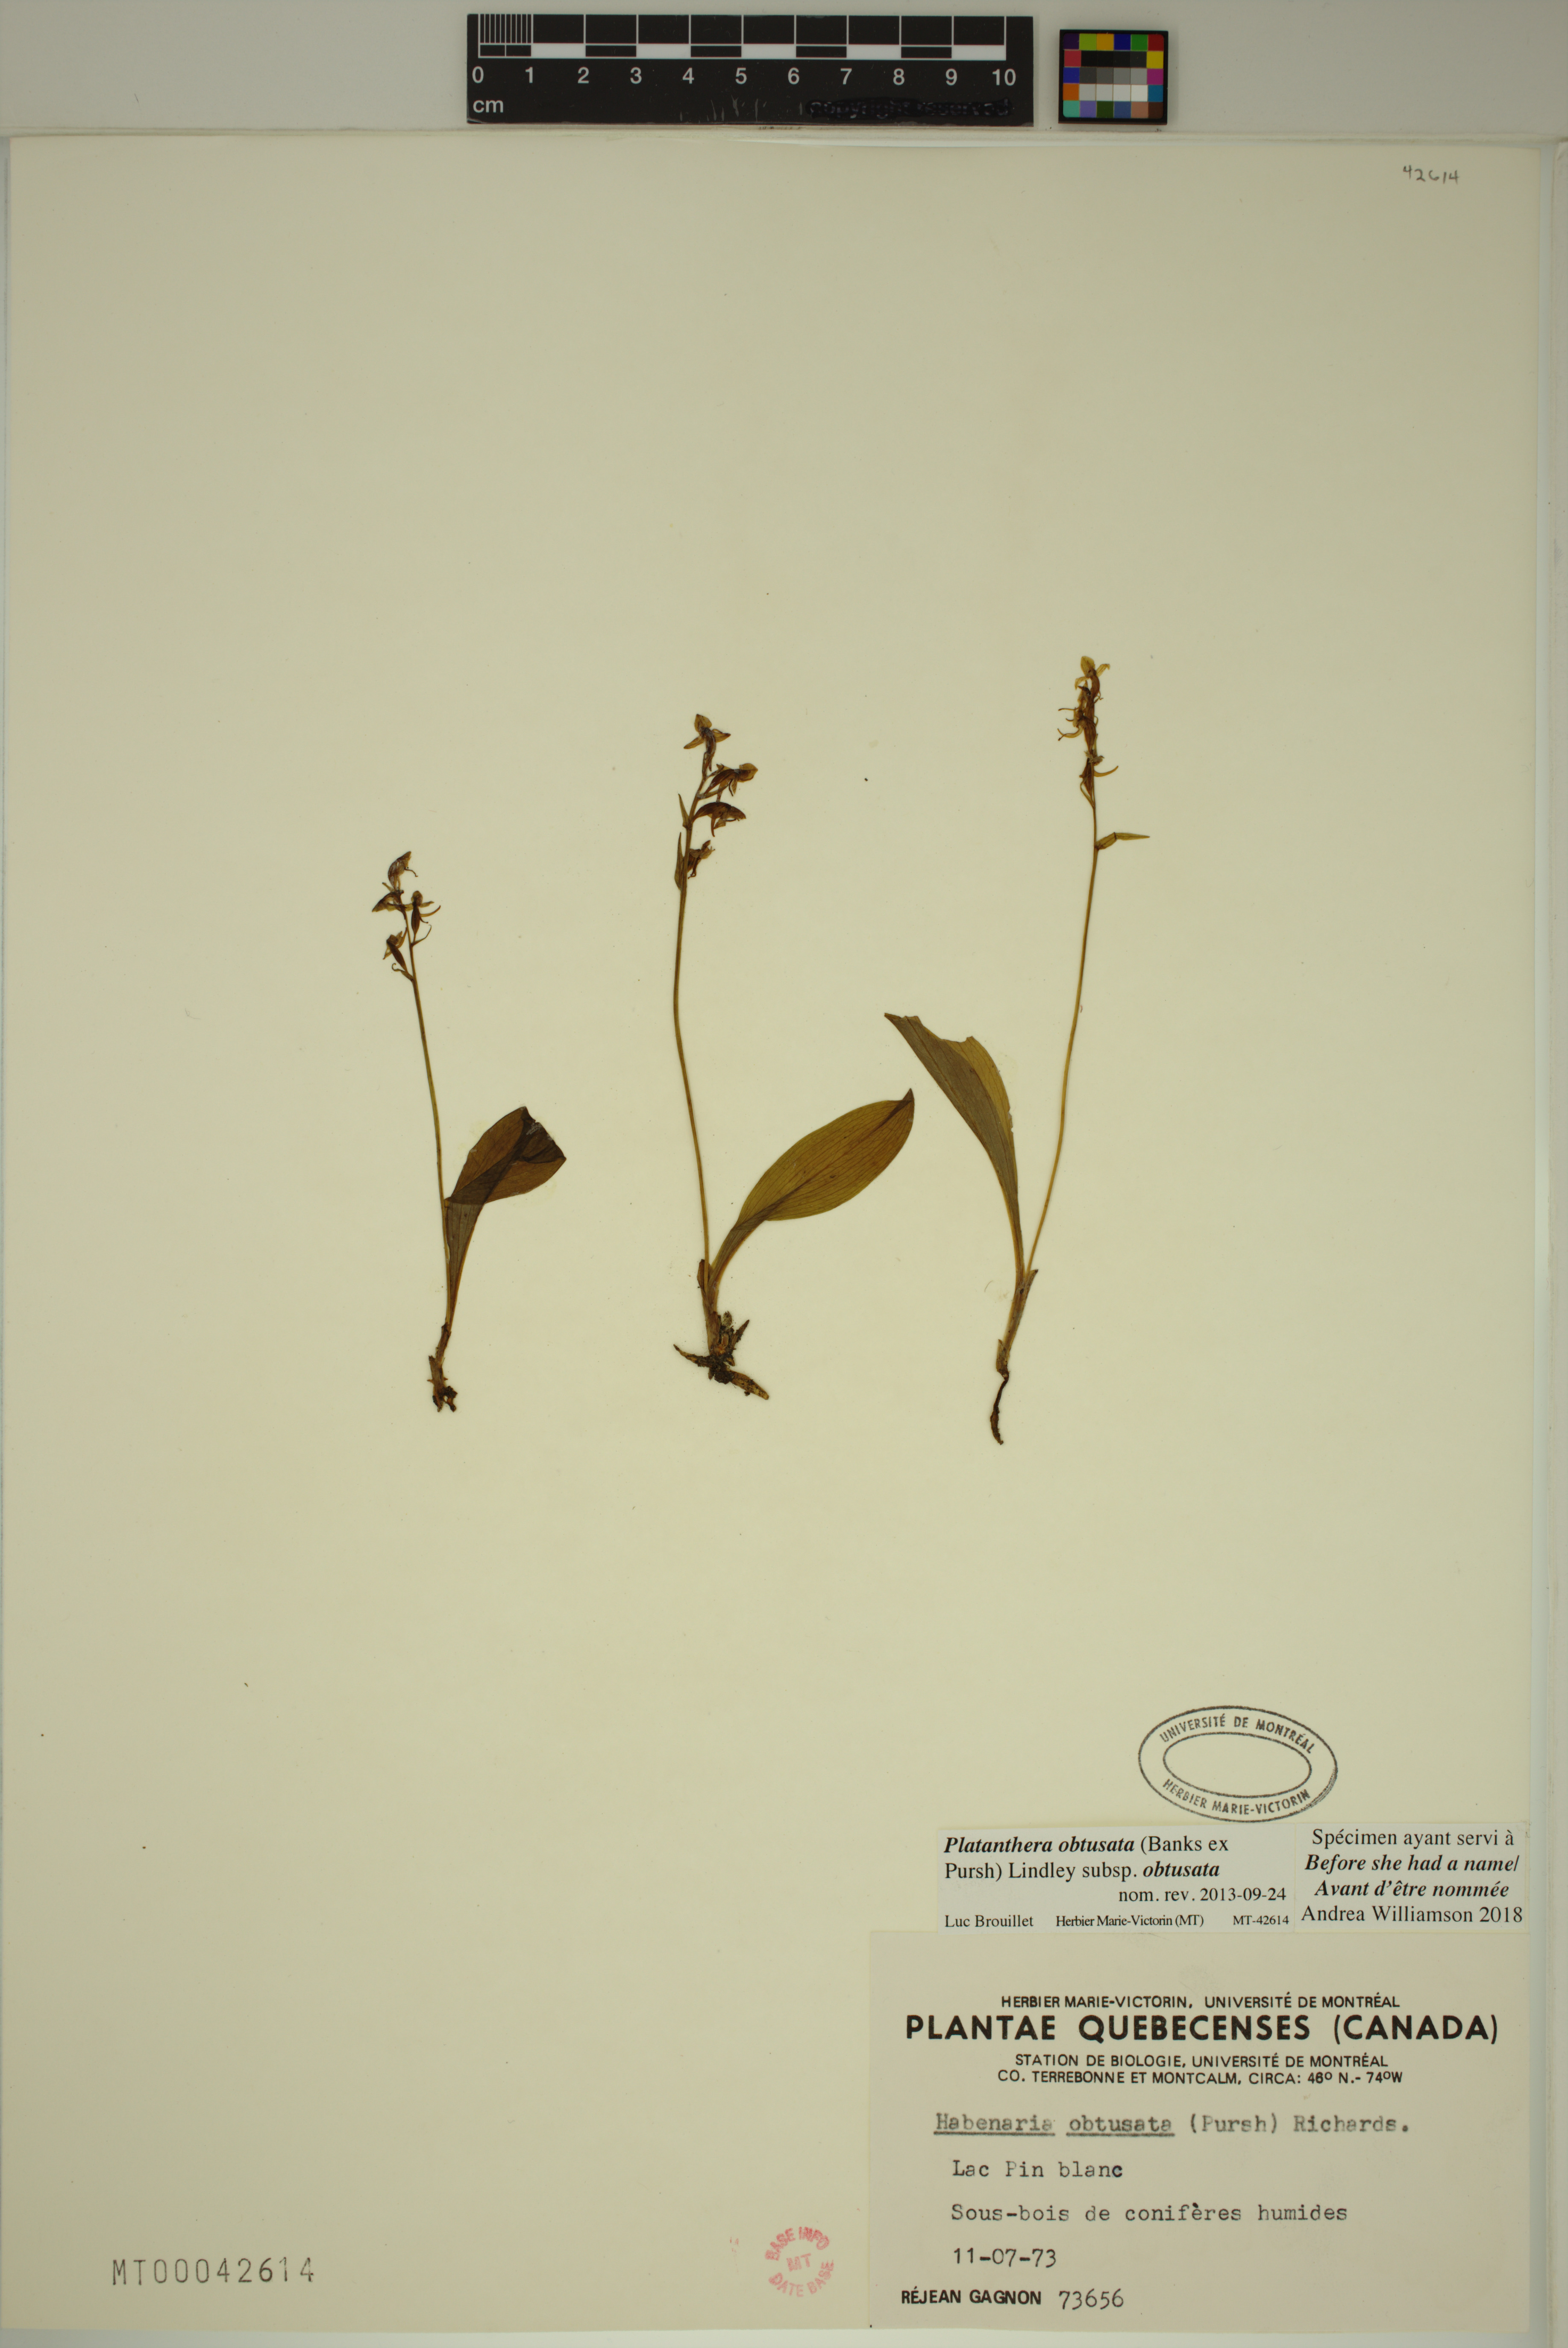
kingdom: Plantae
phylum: Tracheophyta
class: Liliopsida
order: Asparagales
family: Orchidaceae
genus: Platanthera
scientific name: Platanthera obtusata
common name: Blunt bog orchid
